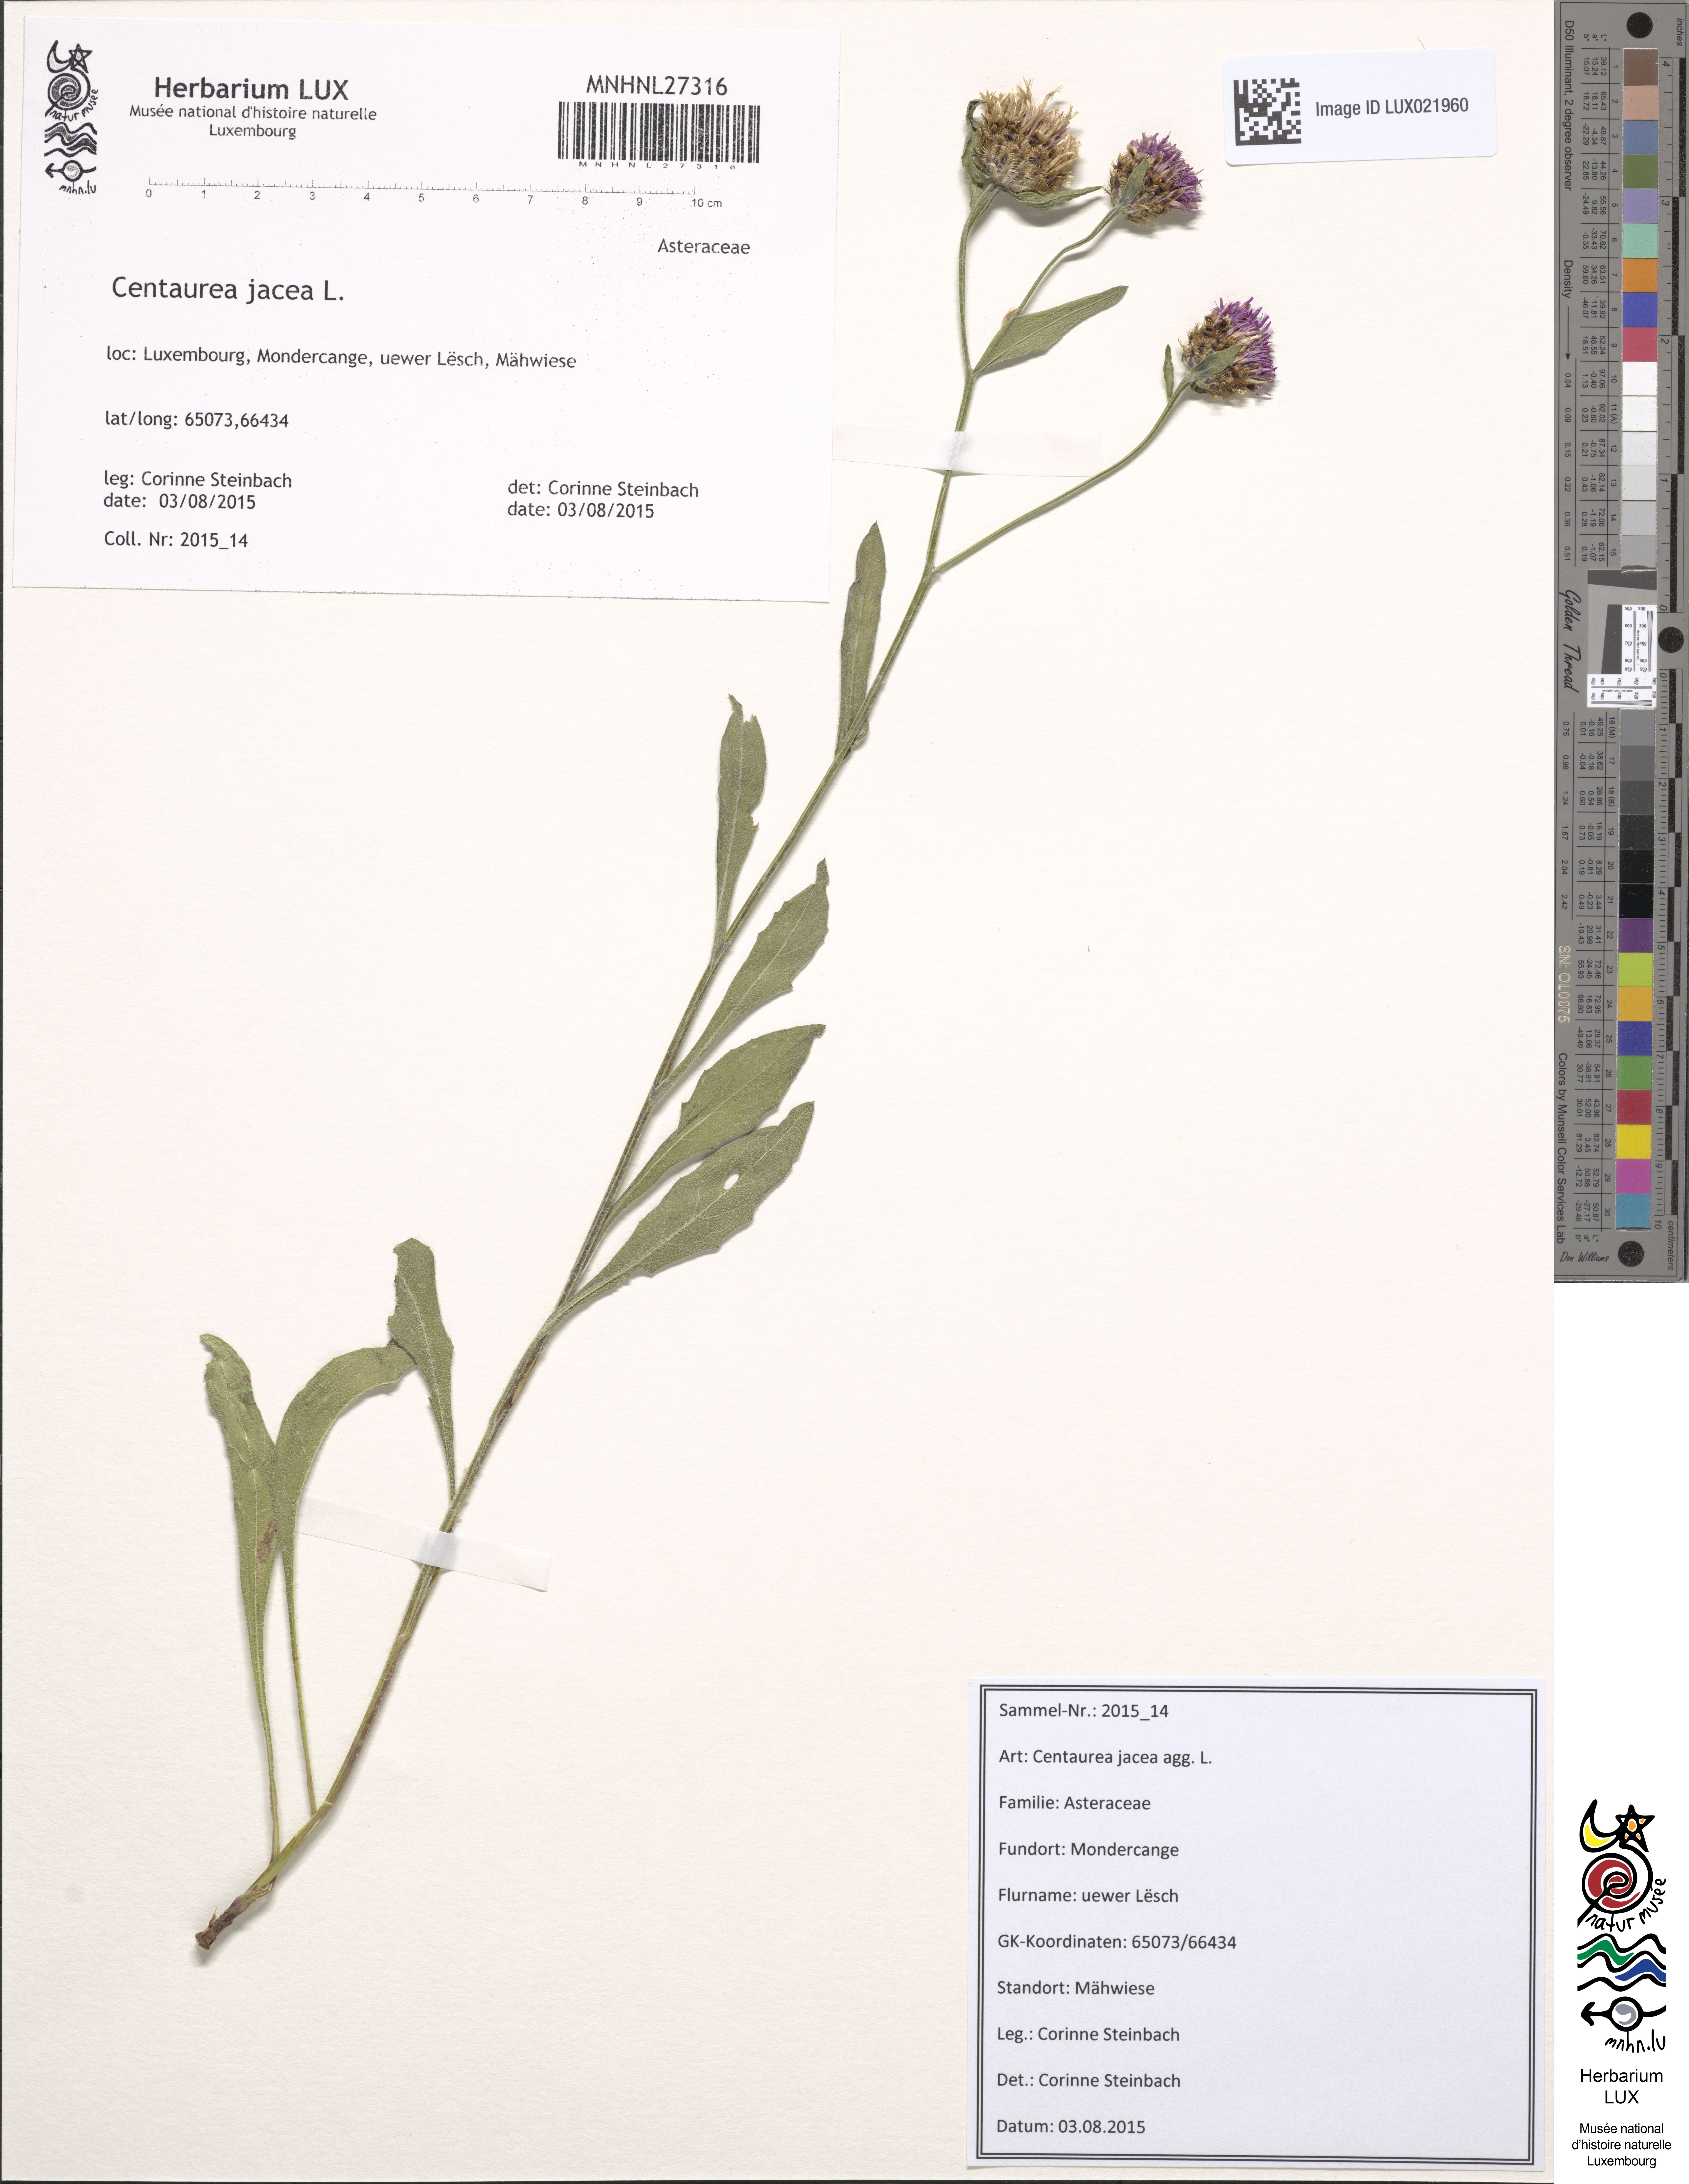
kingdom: Plantae
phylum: Tracheophyta
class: Magnoliopsida
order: Asterales
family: Asteraceae
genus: Centaurea
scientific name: Centaurea jacea
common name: Brown knapweed
